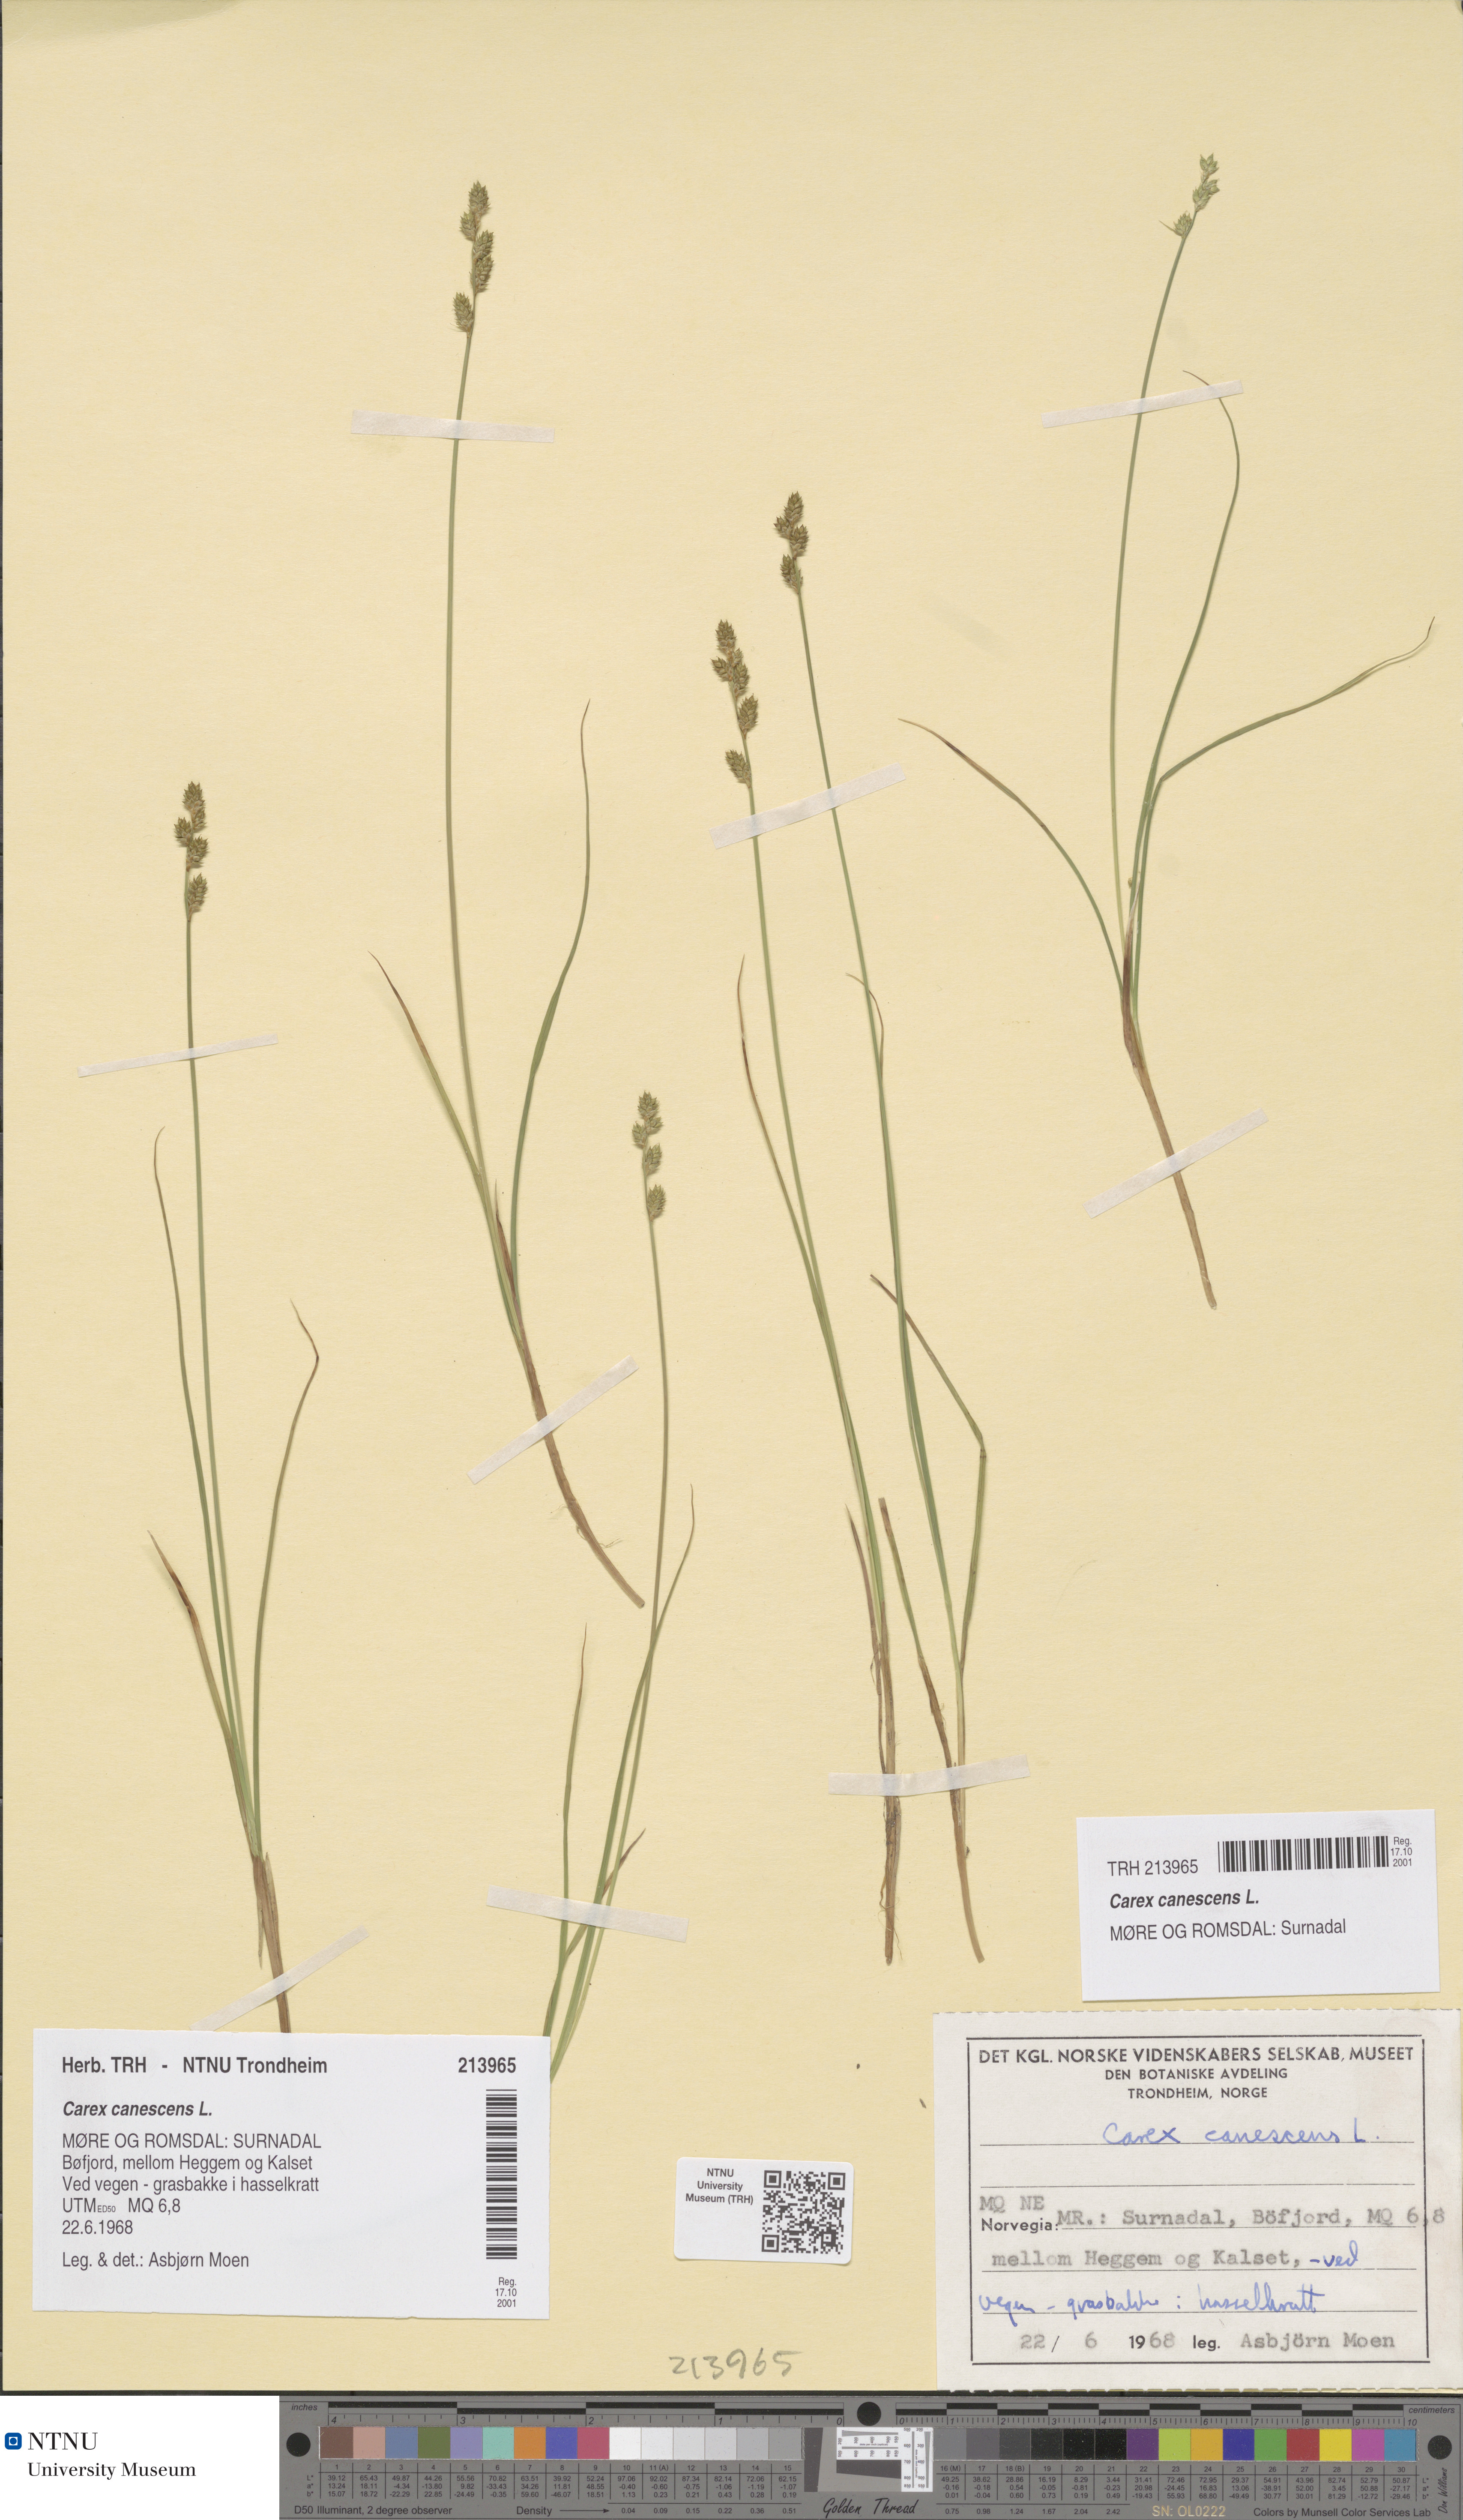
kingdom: Plantae
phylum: Tracheophyta
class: Liliopsida
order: Poales
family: Cyperaceae
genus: Carex
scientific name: Carex canescens
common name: White sedge
